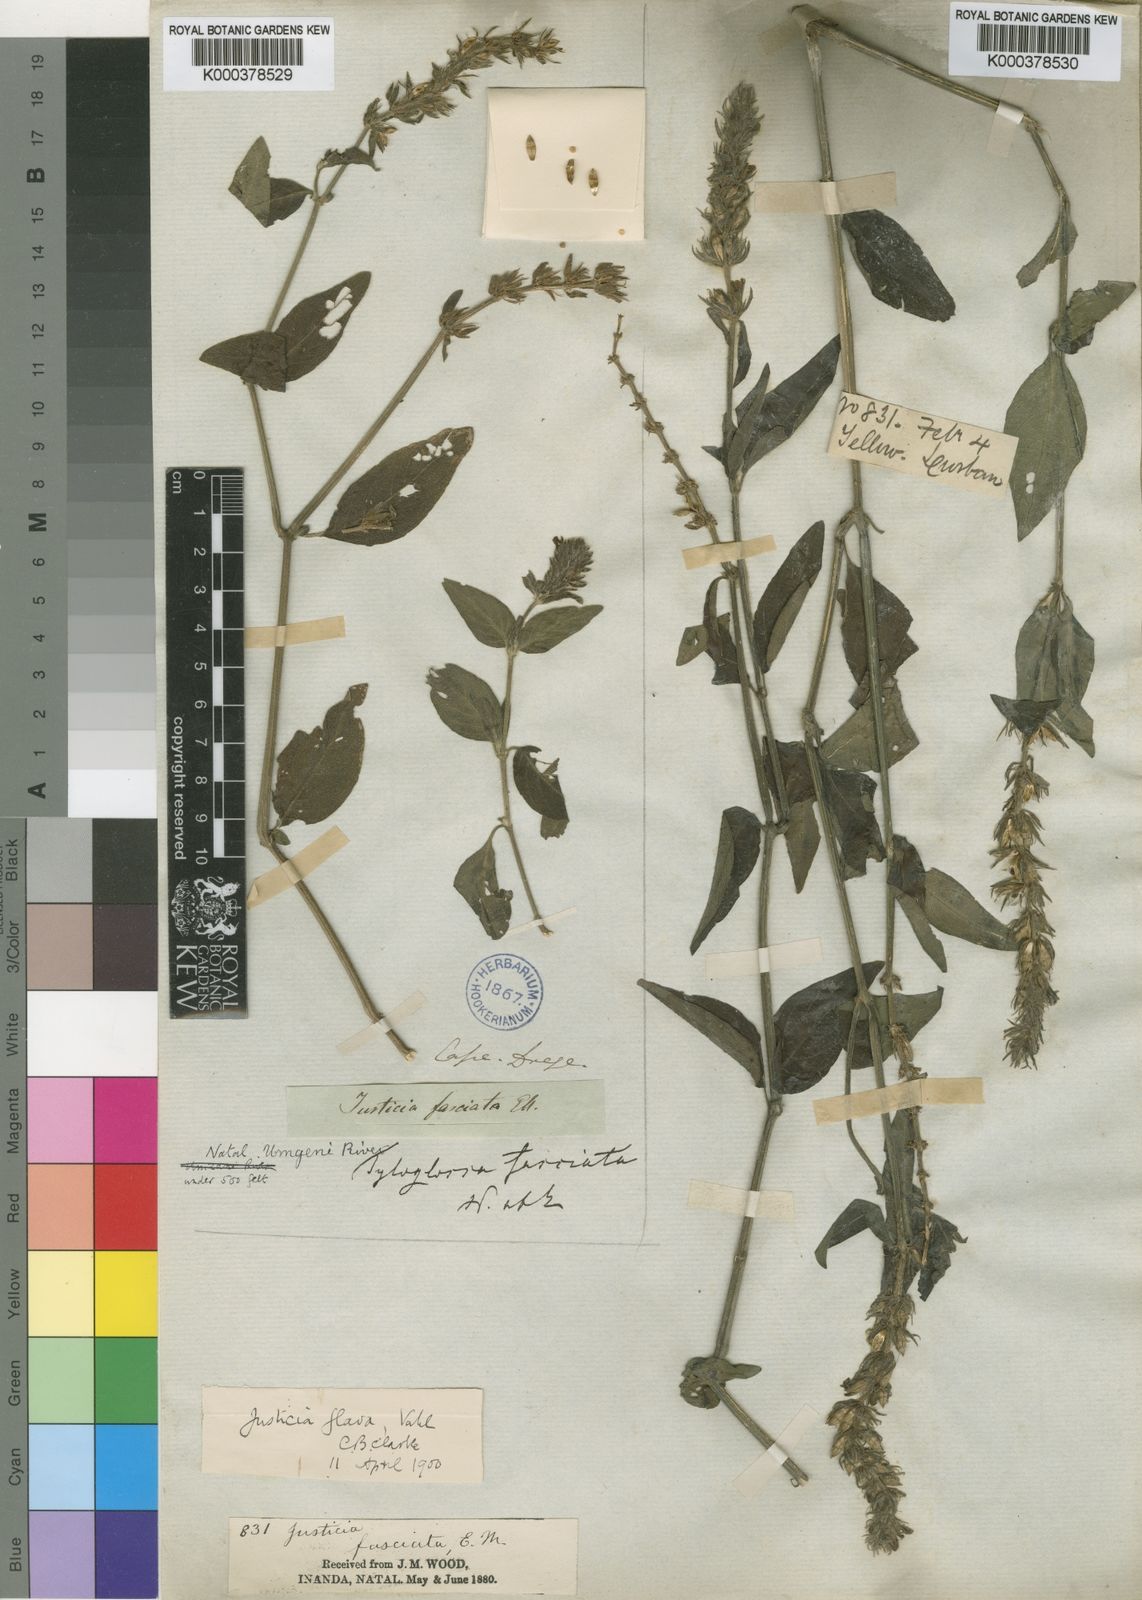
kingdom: Plantae
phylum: Tracheophyta
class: Magnoliopsida
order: Lamiales
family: Acanthaceae
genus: Justicia
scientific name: Justicia flava
